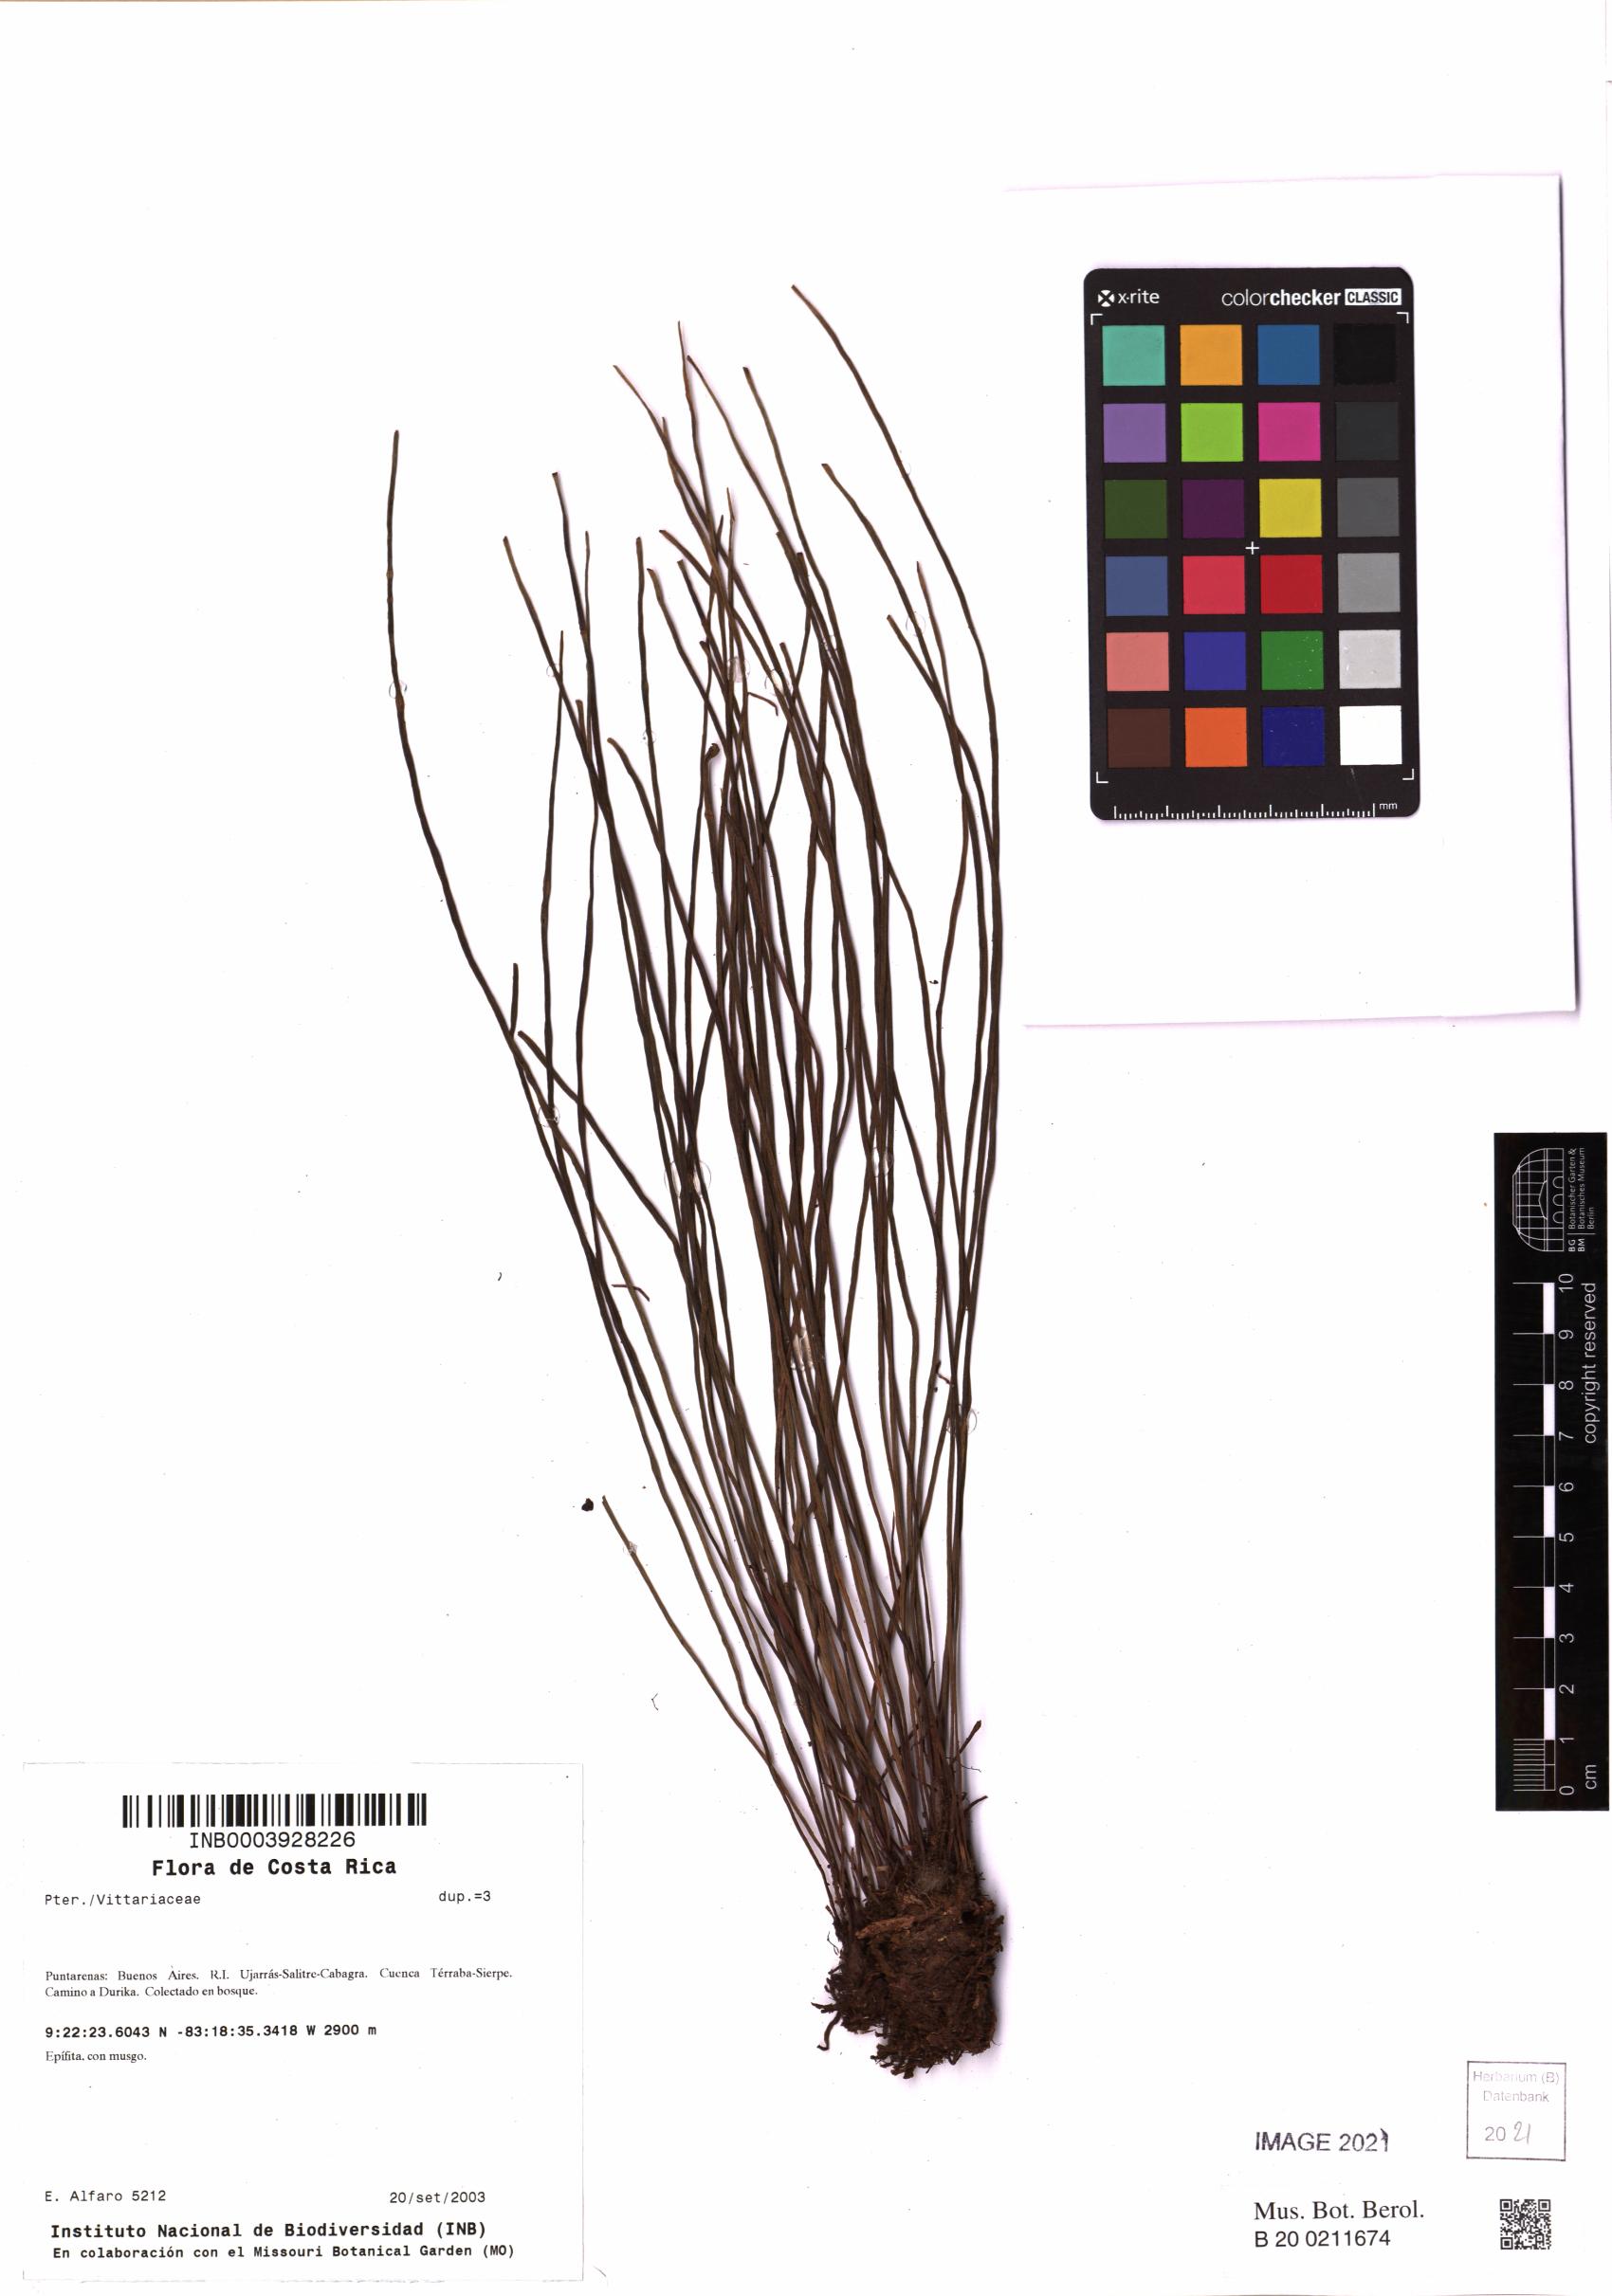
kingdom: Plantae
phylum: Tracheophyta
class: Polypodiopsida
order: Polypodiales
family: Pteridaceae
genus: Vittaria
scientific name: Vittaria graminifolia
